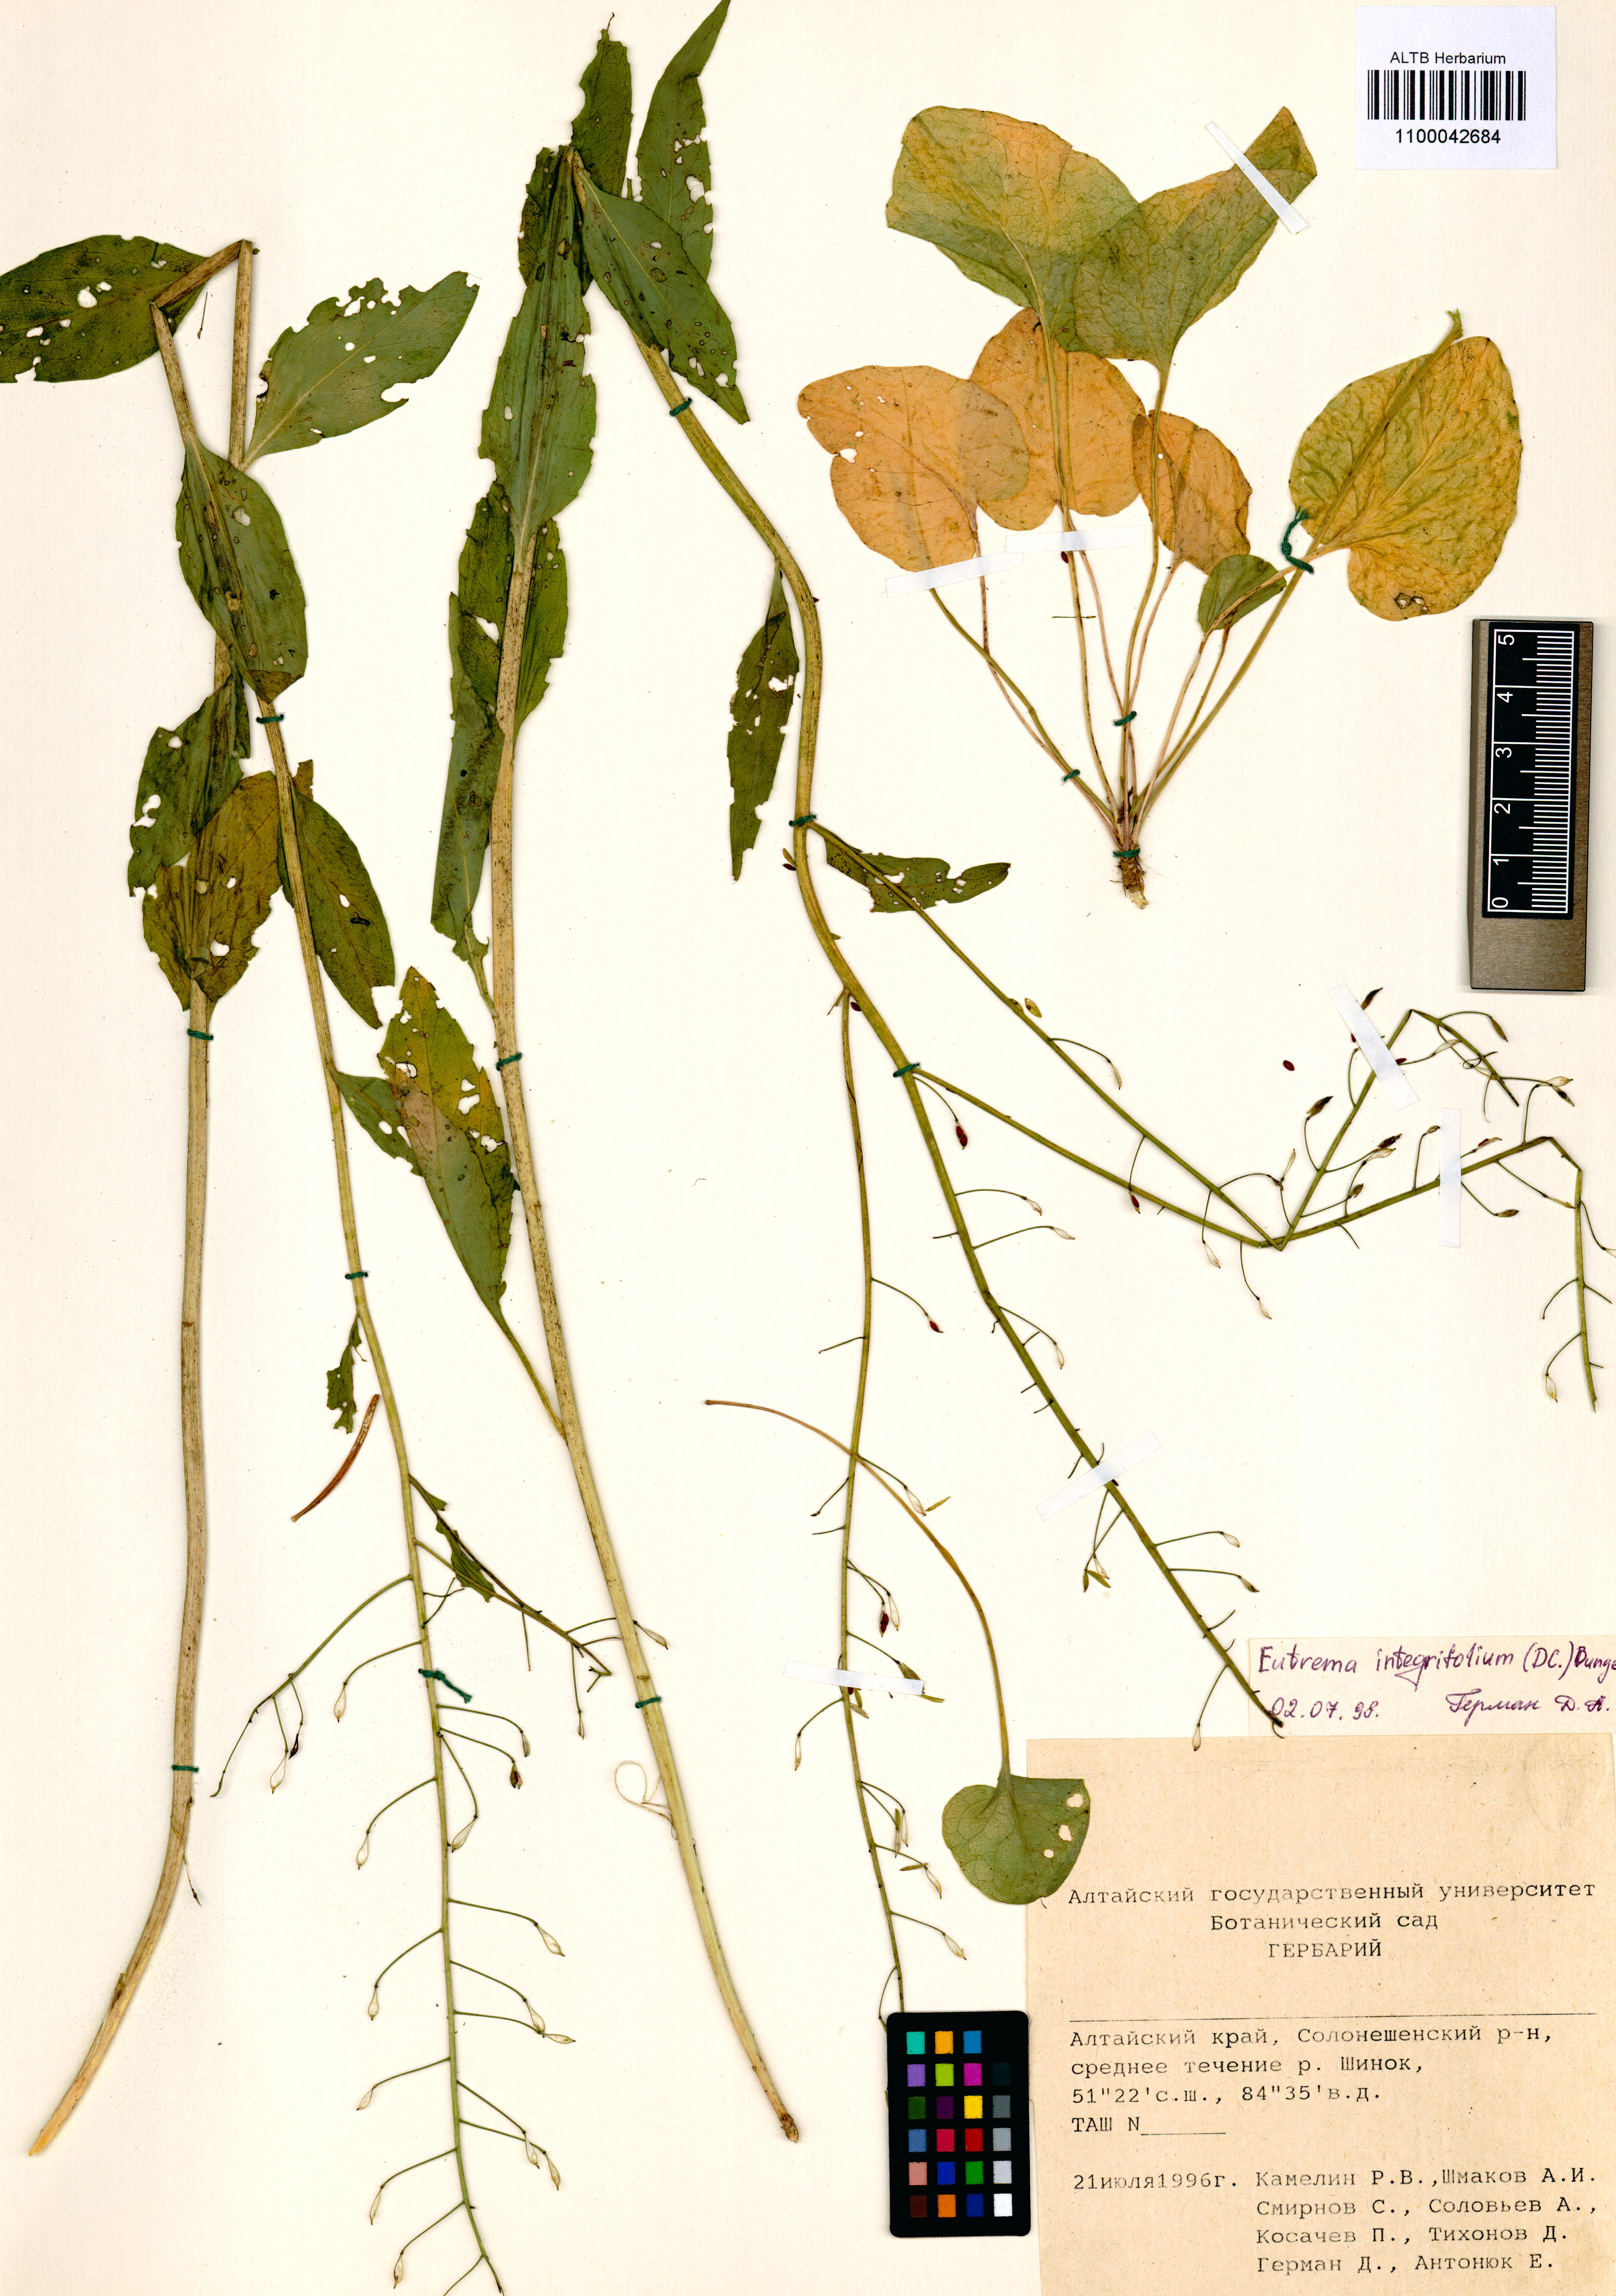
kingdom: Plantae
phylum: Tracheophyta
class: Magnoliopsida
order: Brassicales
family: Brassicaceae
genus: Eutrema
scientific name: Eutrema integrifolium
